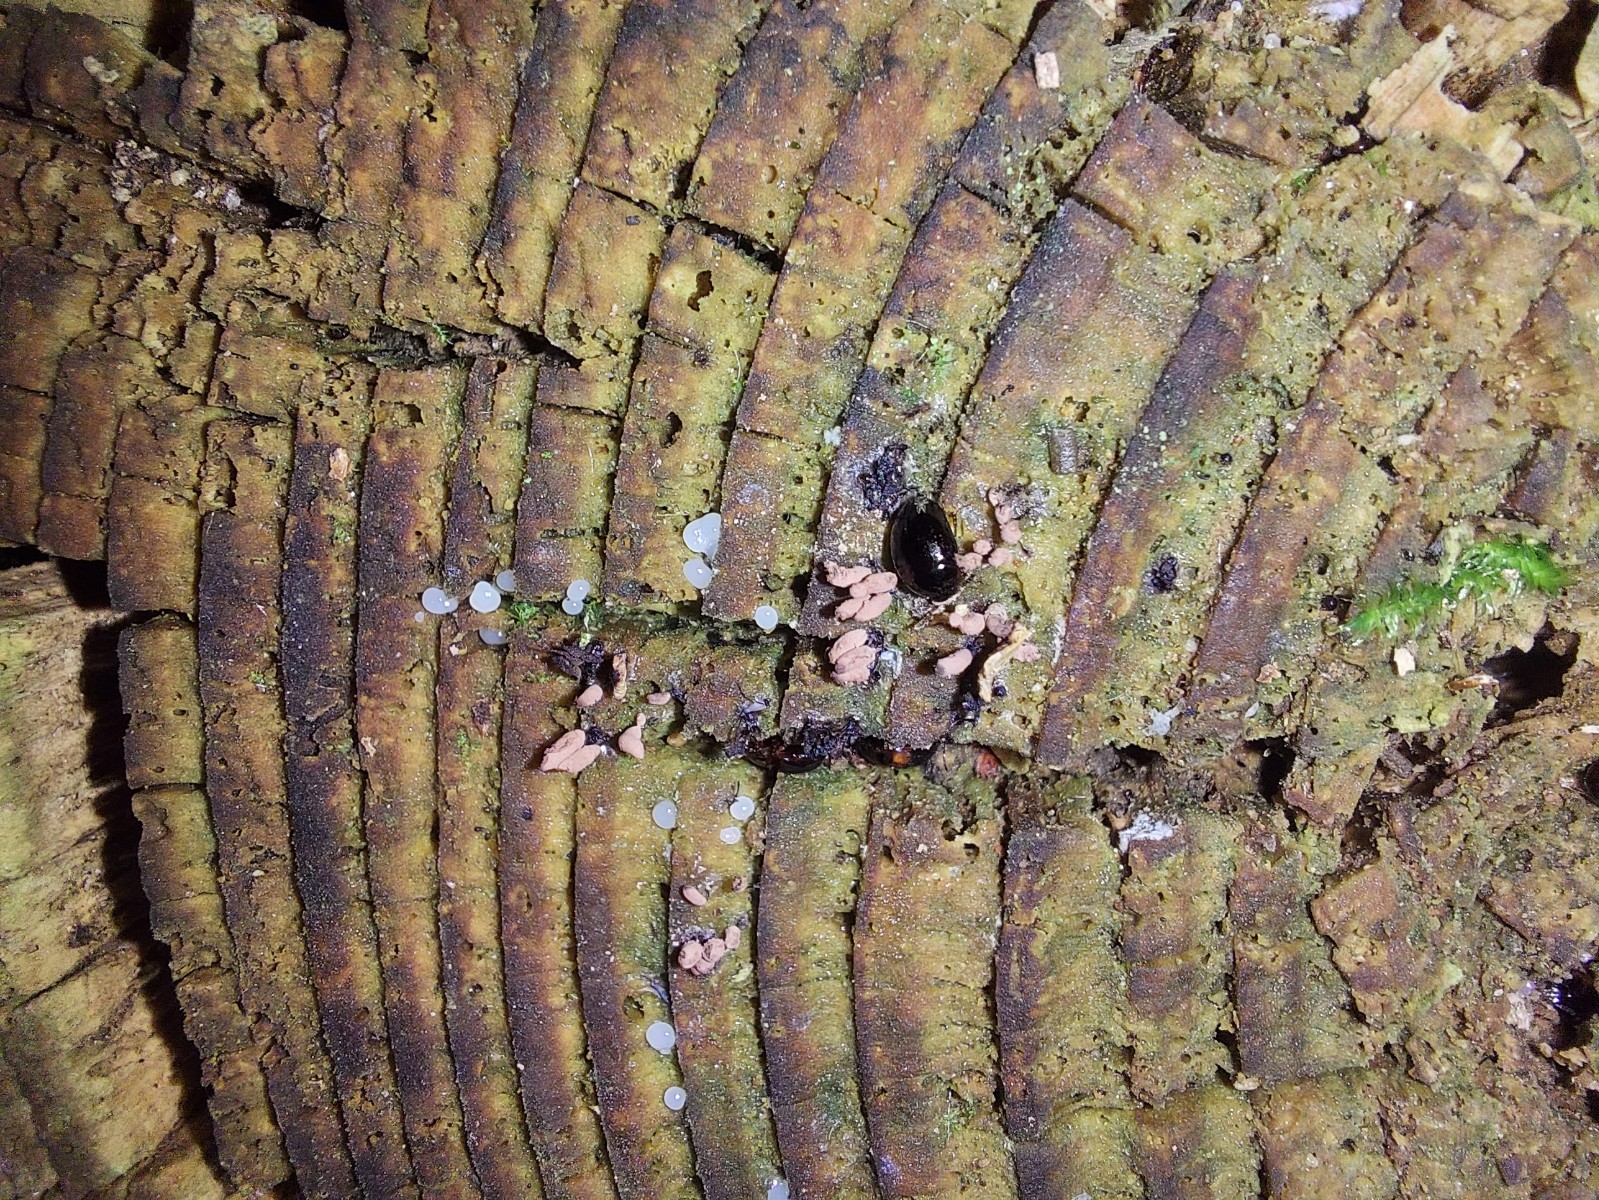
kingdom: Protozoa
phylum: Mycetozoa
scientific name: Mycetozoa
